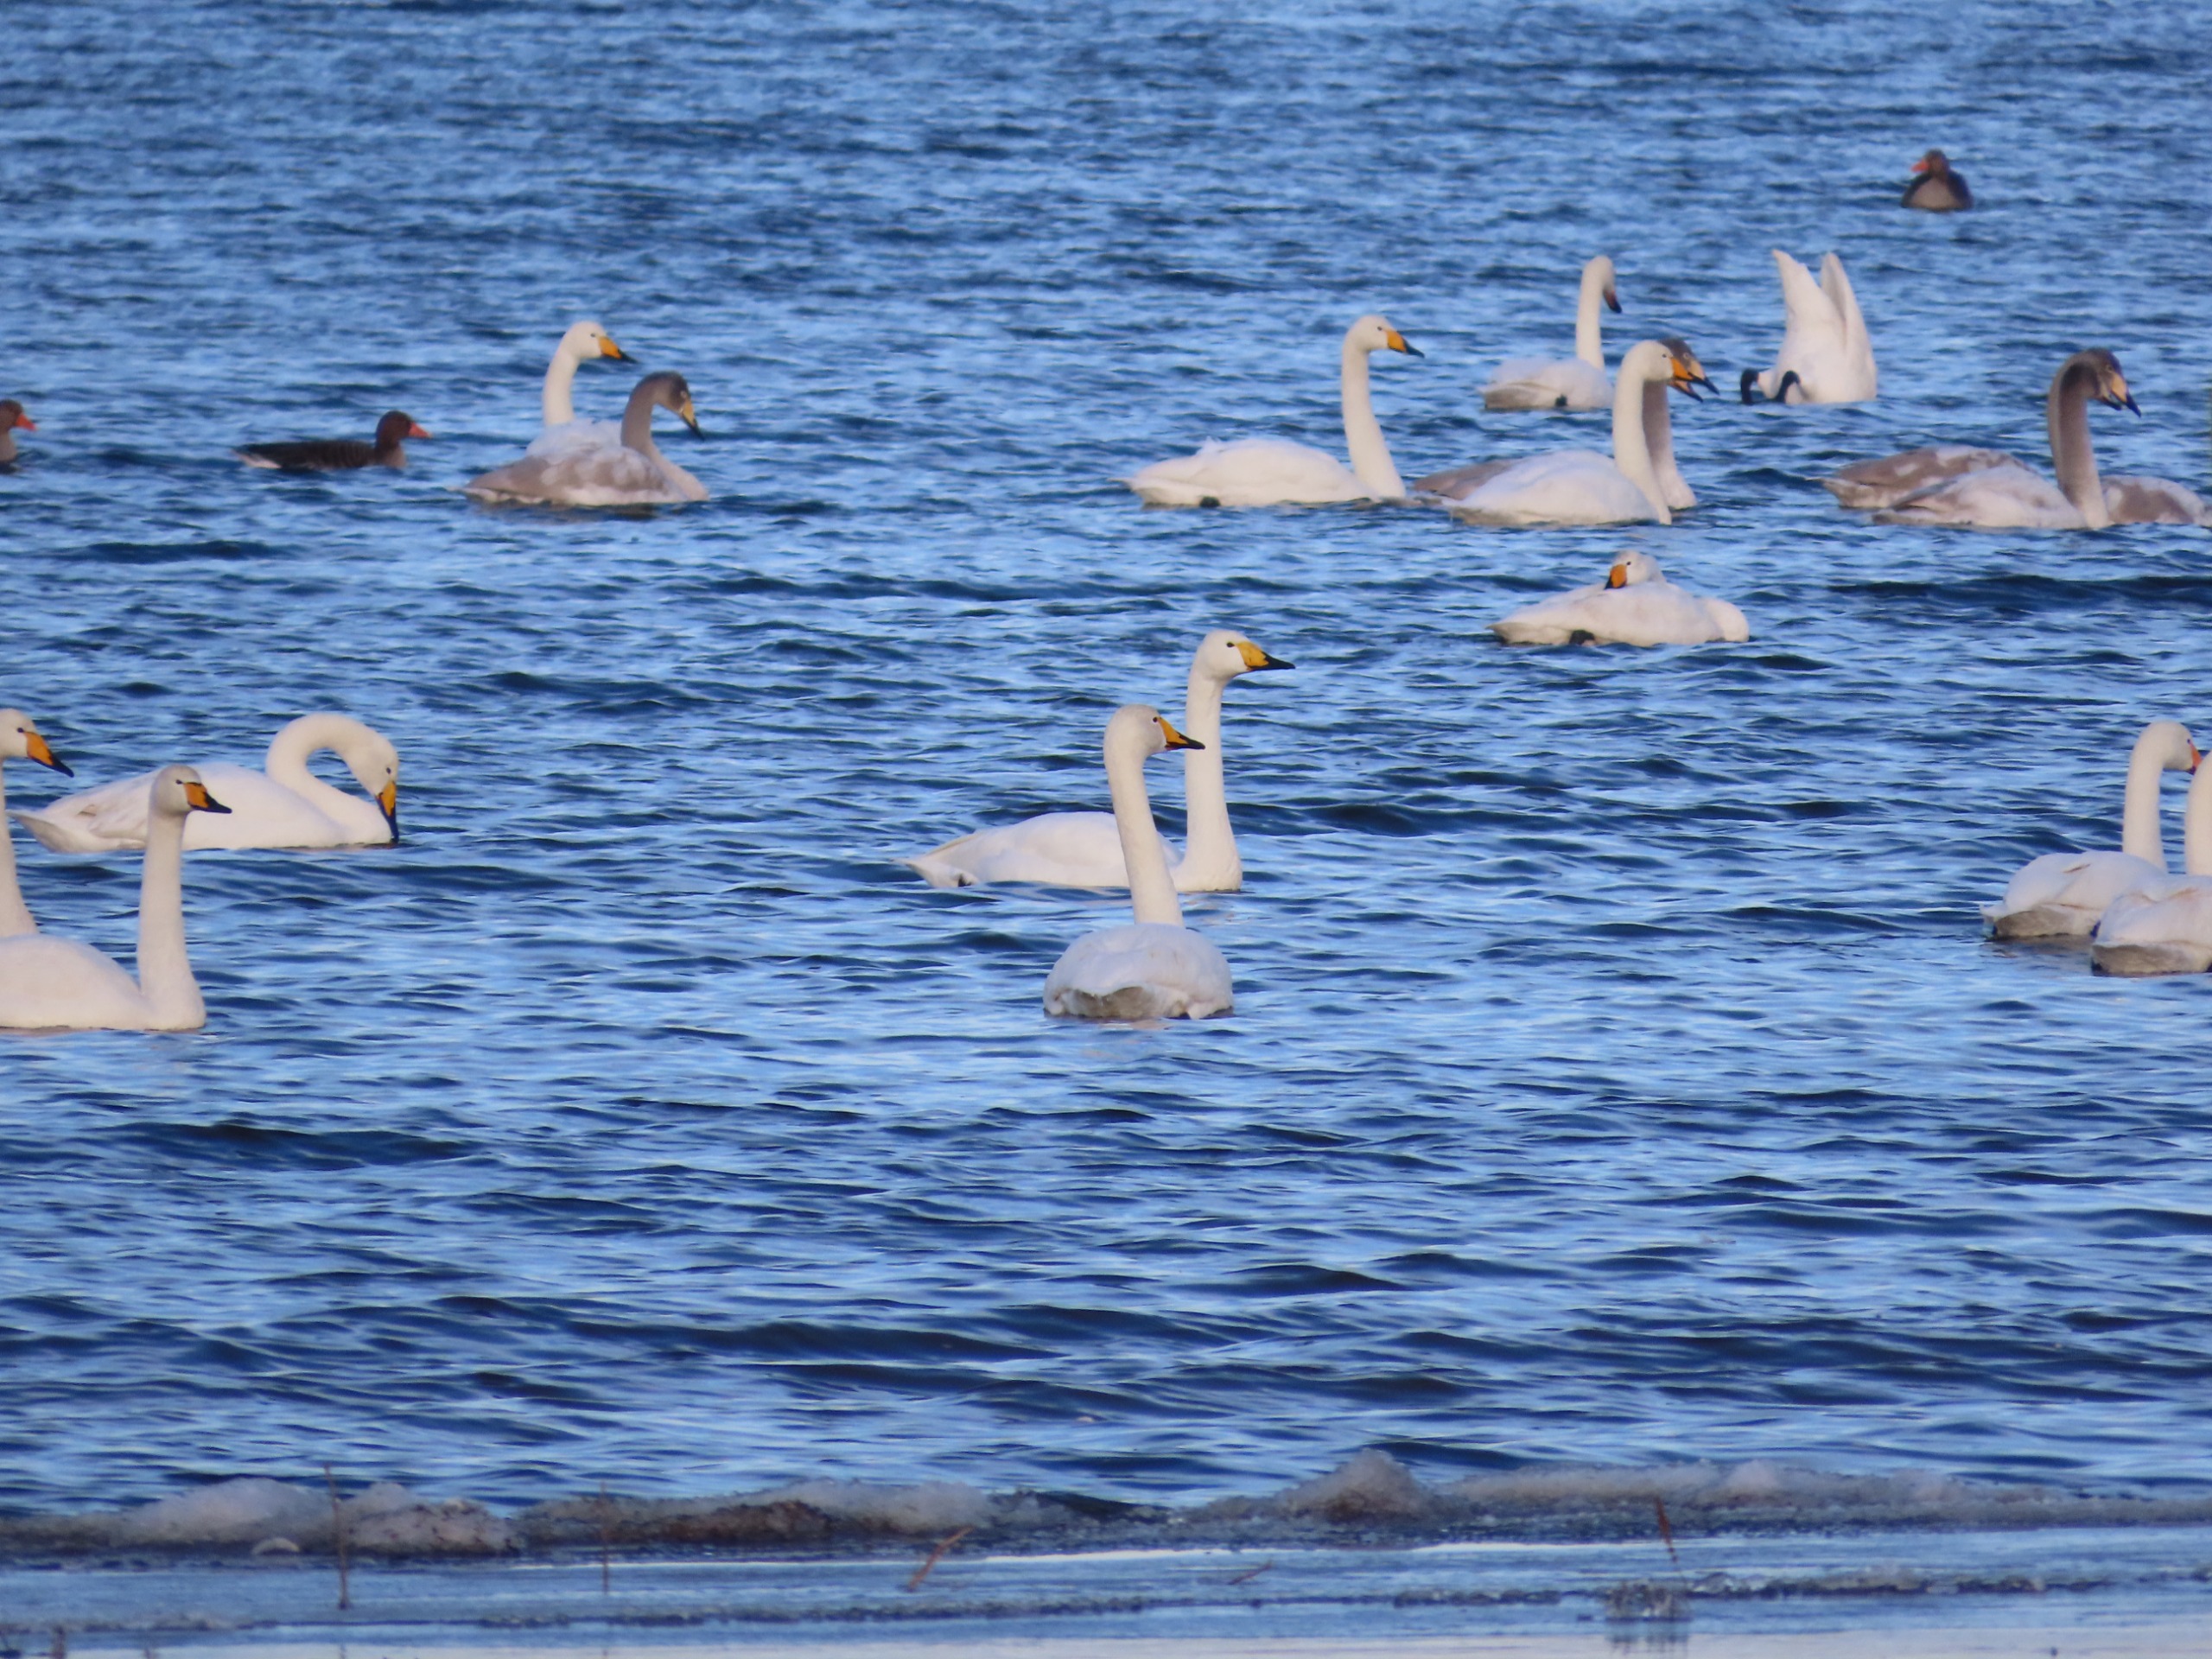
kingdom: Animalia
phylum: Chordata
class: Aves
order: Anseriformes
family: Anatidae
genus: Cygnus
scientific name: Cygnus cygnus
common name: Sangsvane
